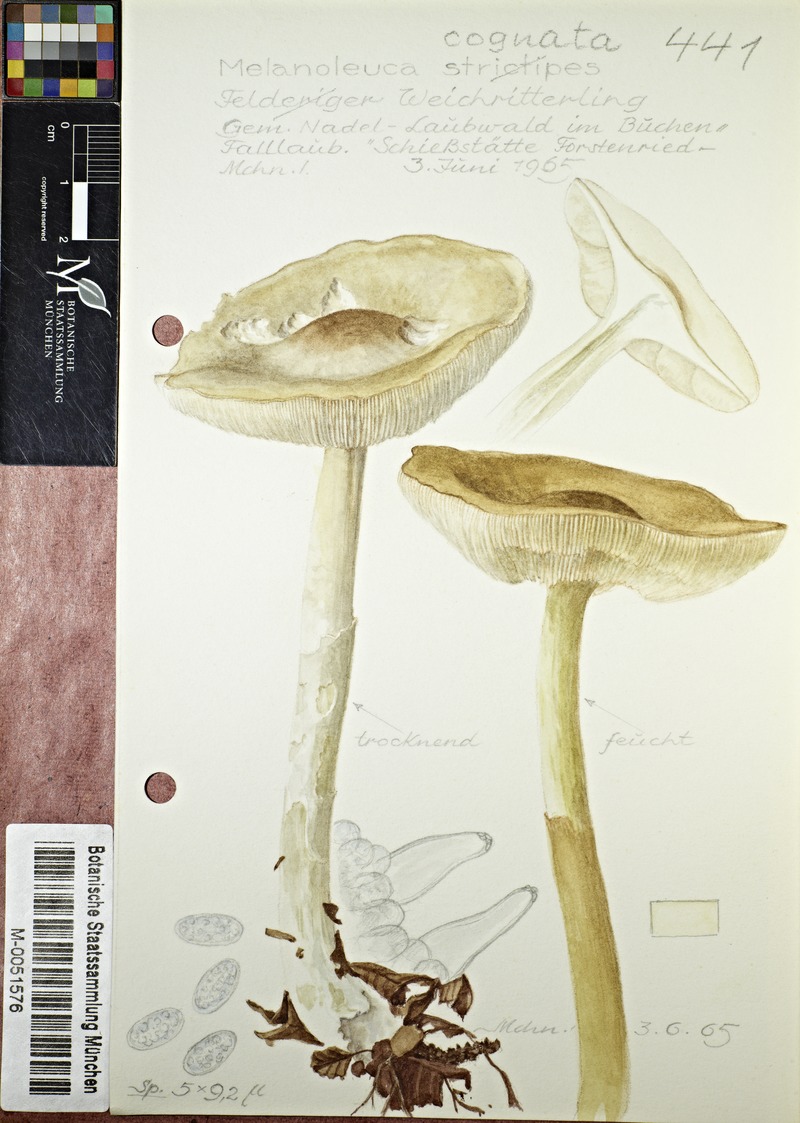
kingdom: Fungi
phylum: Basidiomycota
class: Agaricomycetes
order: Agaricales
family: Tricholomataceae
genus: Melanoleuca
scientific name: Melanoleuca cognata
